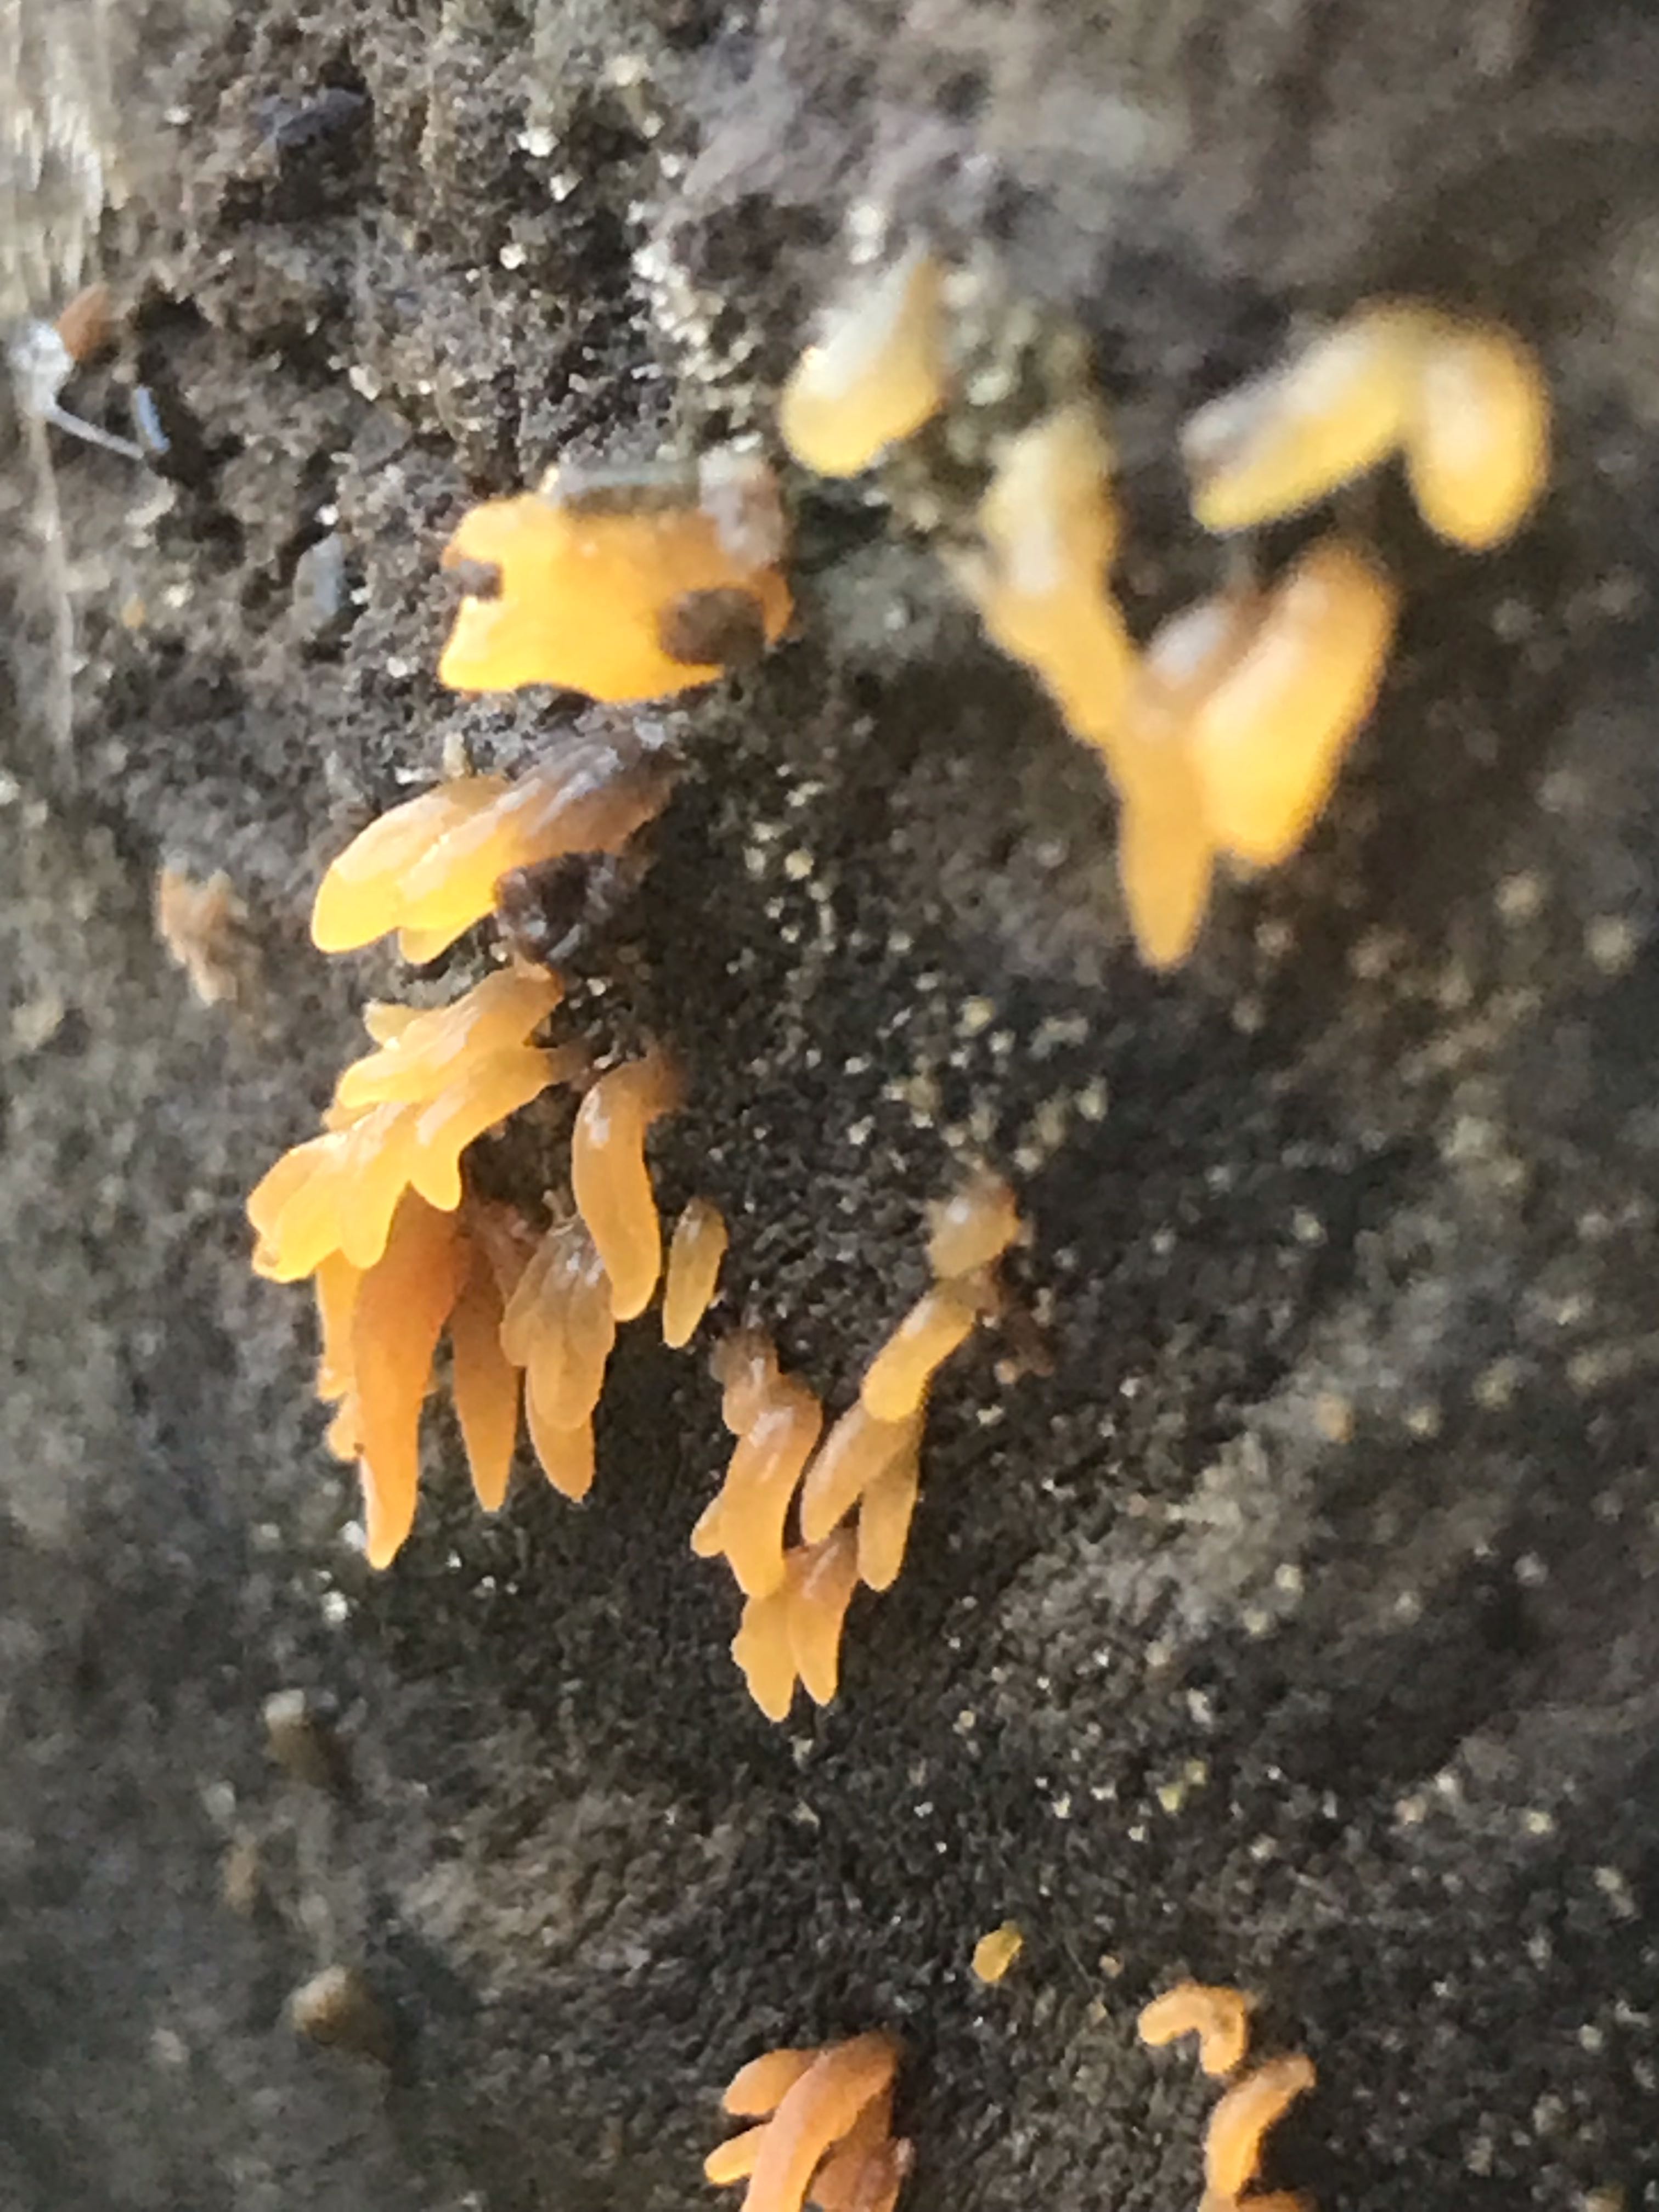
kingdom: Fungi
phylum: Basidiomycota
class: Dacrymycetes
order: Dacrymycetales
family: Dacrymycetaceae
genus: Calocera
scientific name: Calocera cornea
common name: liden guldgaffel
